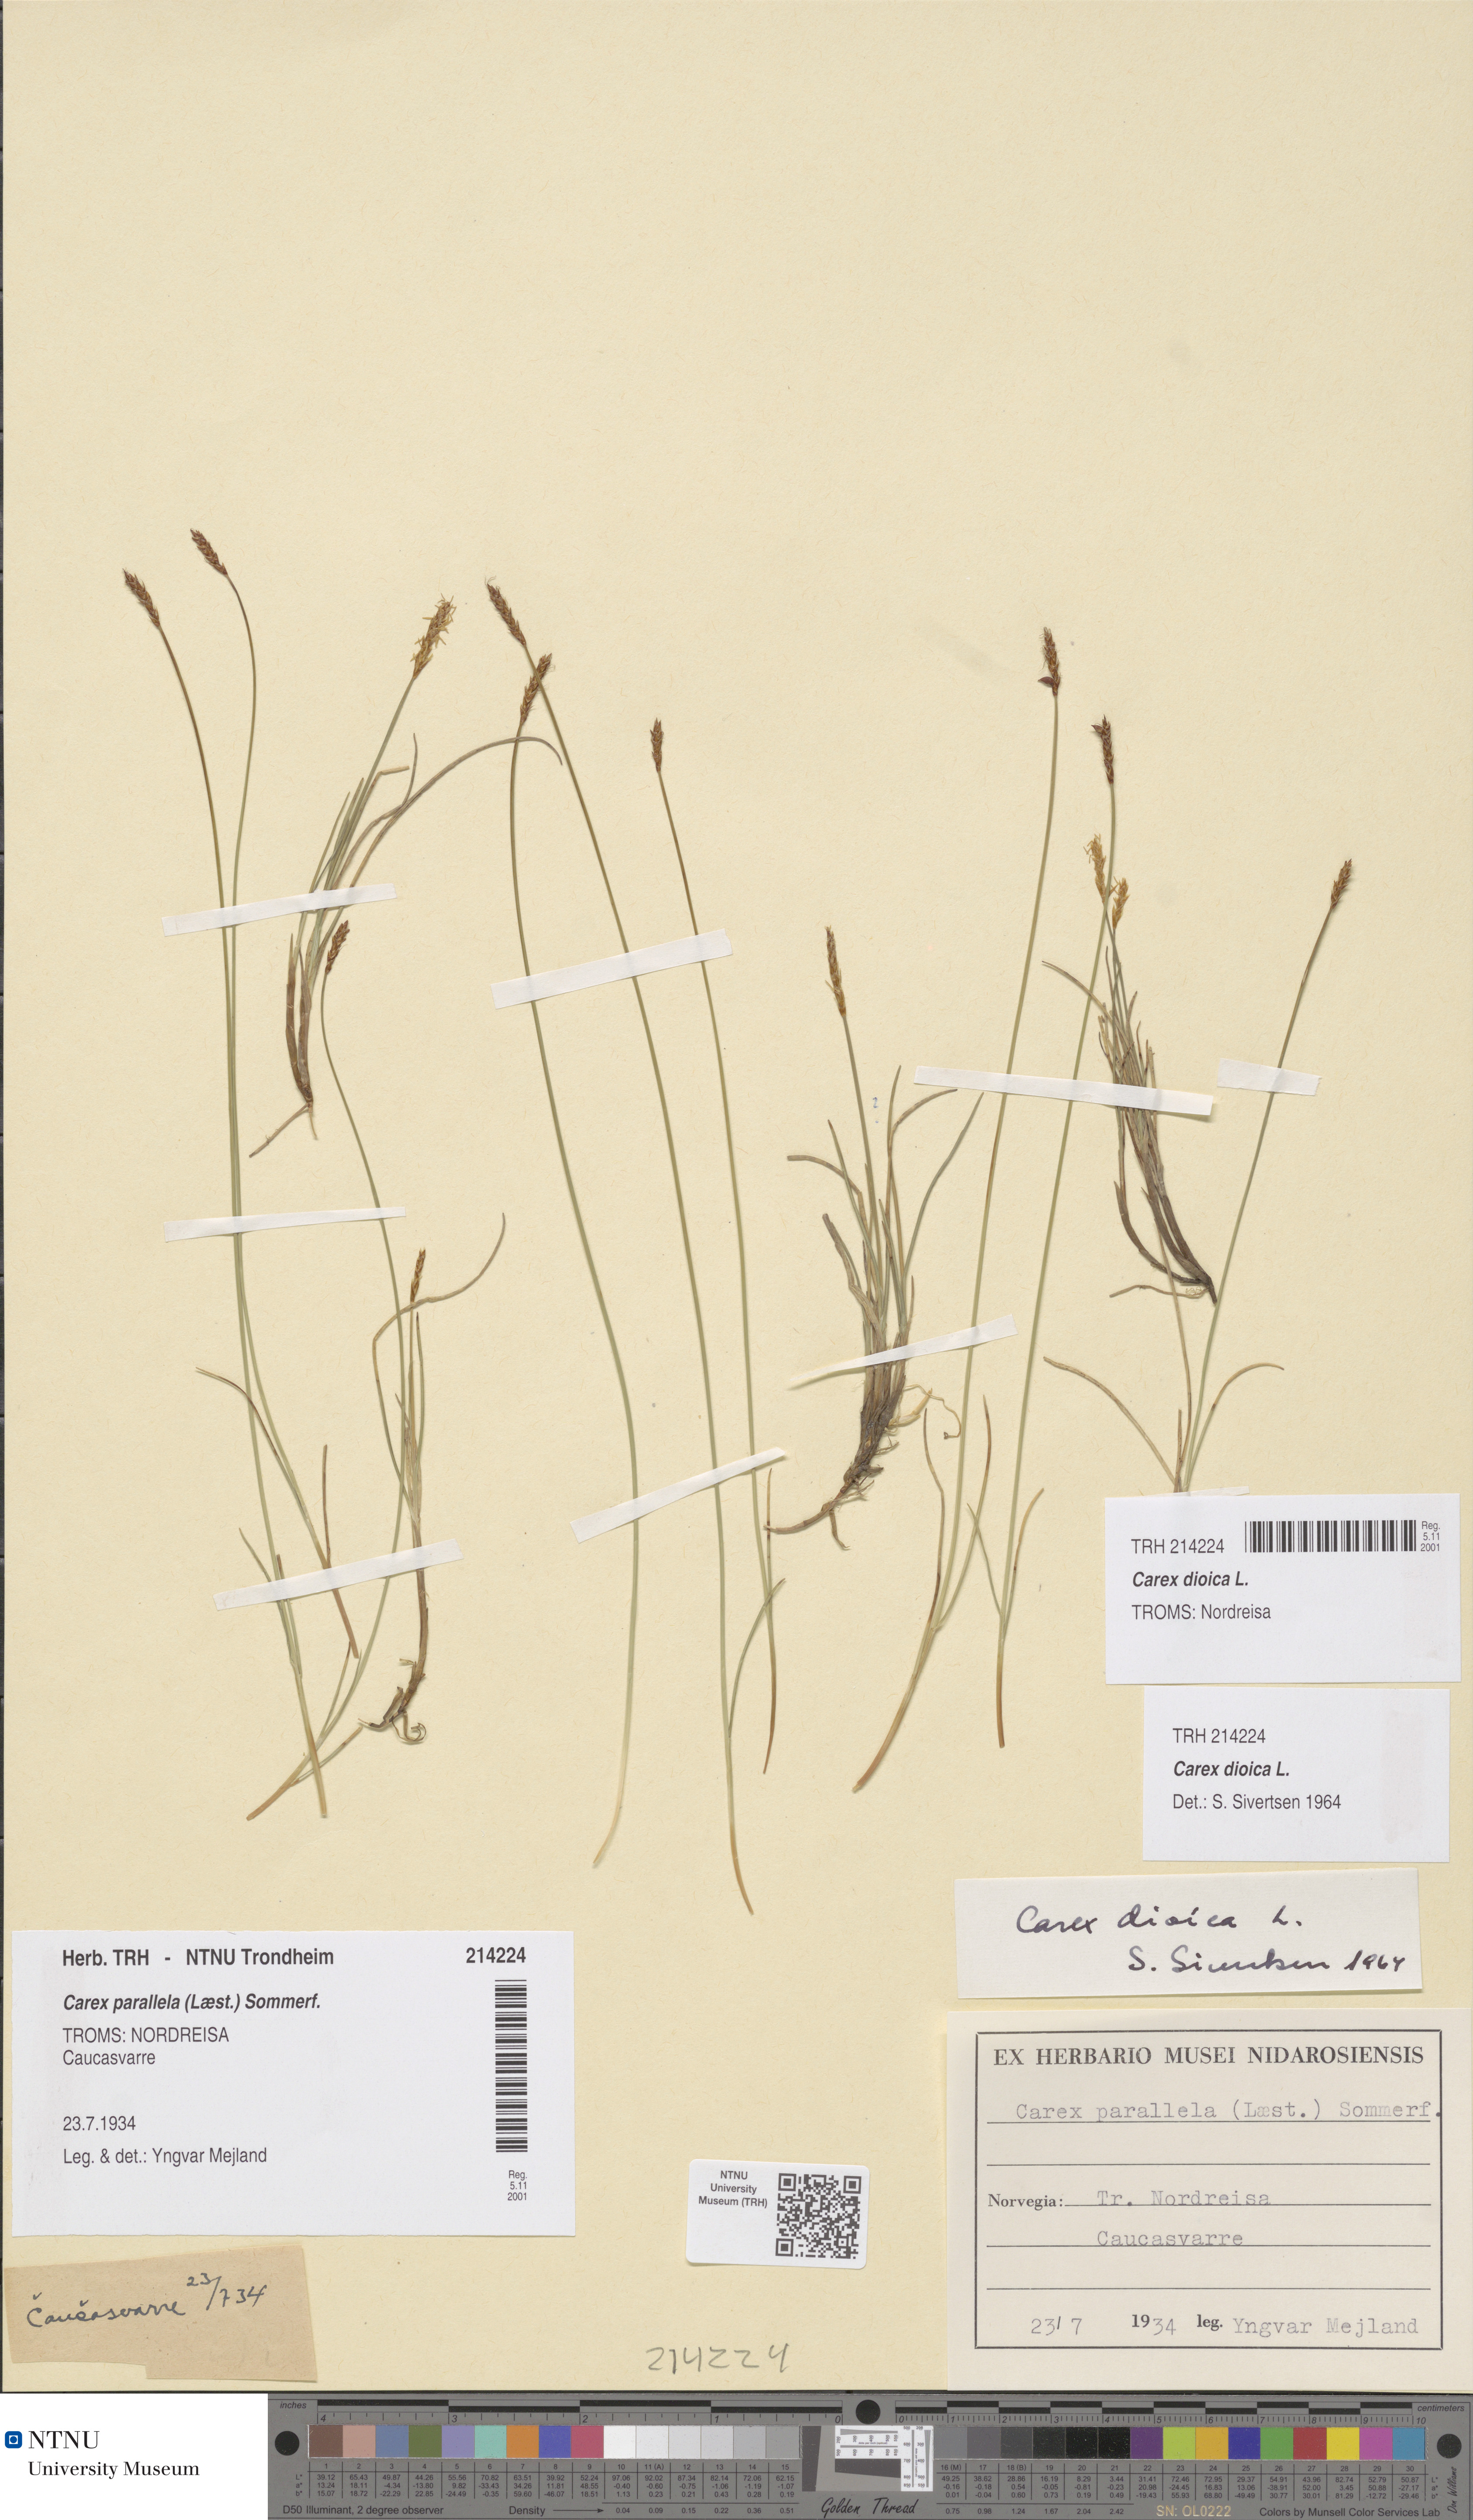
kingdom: Plantae
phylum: Tracheophyta
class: Liliopsida
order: Poales
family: Cyperaceae
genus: Carex
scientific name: Carex dioica
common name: Dioecious sedge
